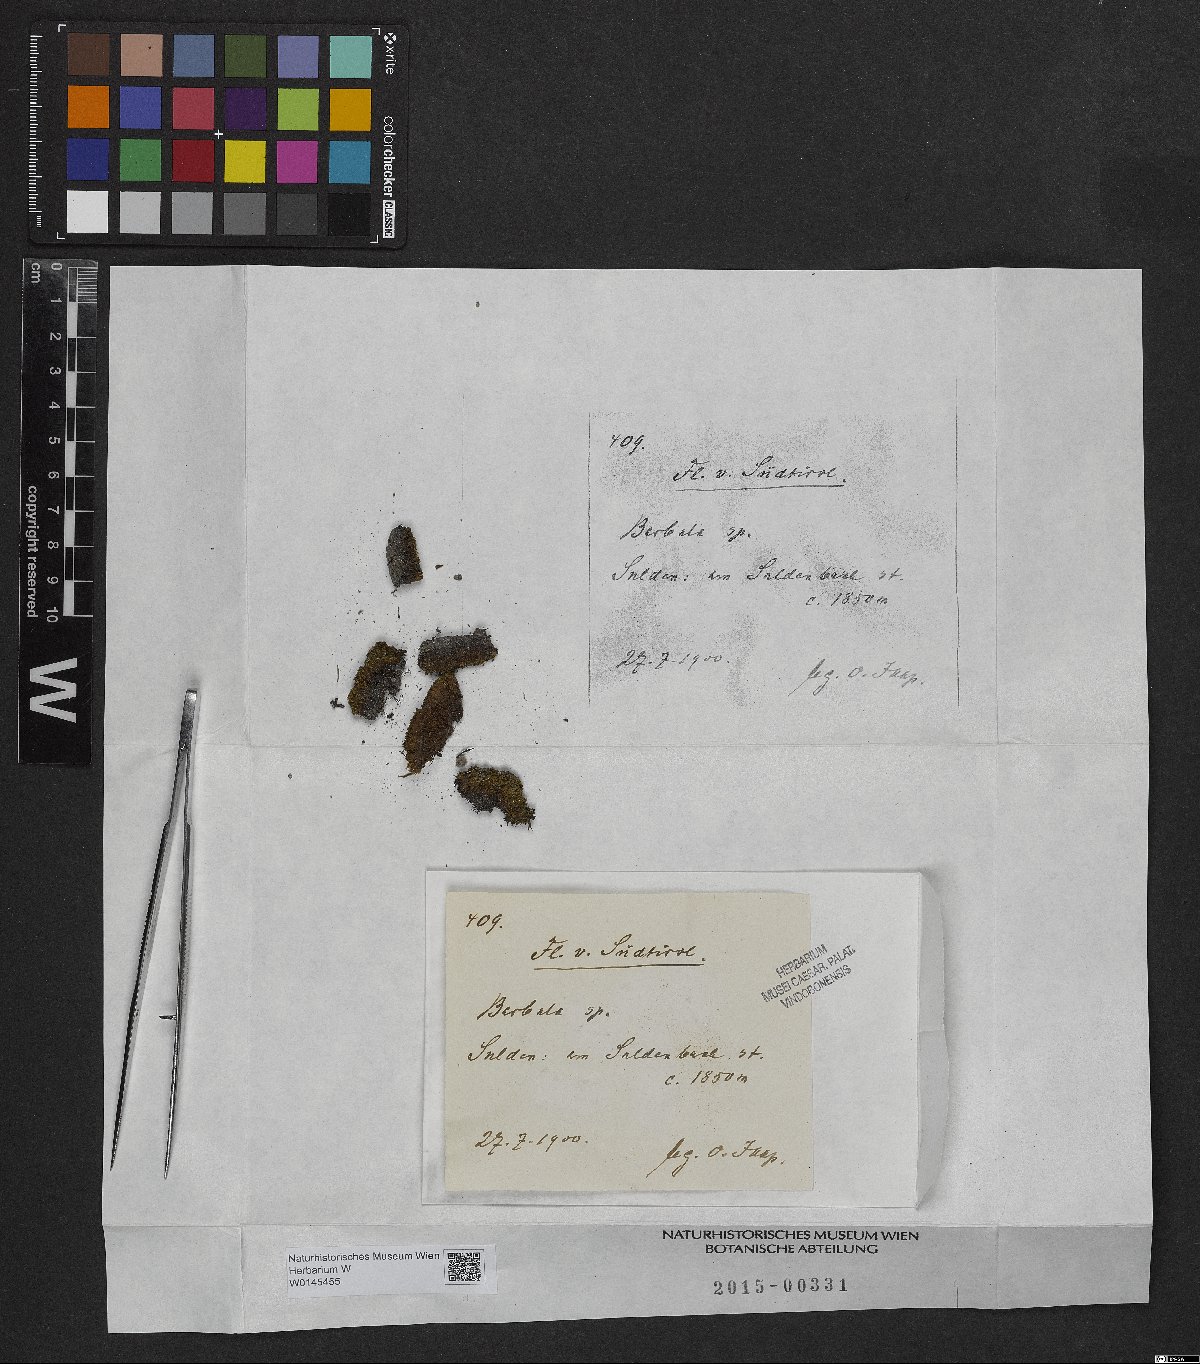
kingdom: Plantae
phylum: Bryophyta
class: Bryopsida
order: Pottiales
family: Pottiaceae
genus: Barbula
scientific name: Barbula
